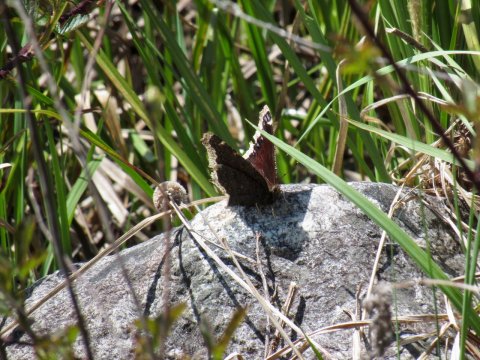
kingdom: Animalia
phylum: Arthropoda
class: Insecta
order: Lepidoptera
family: Nymphalidae
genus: Nymphalis
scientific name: Nymphalis antiopa
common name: Mourning Cloak
